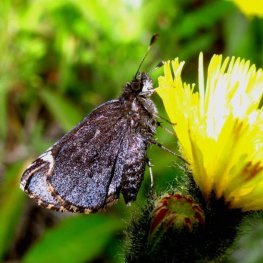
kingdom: Animalia
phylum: Arthropoda
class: Insecta
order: Lepidoptera
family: Hesperiidae
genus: Mastor
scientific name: Mastor vialis
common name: Common Roadside-Skipper
